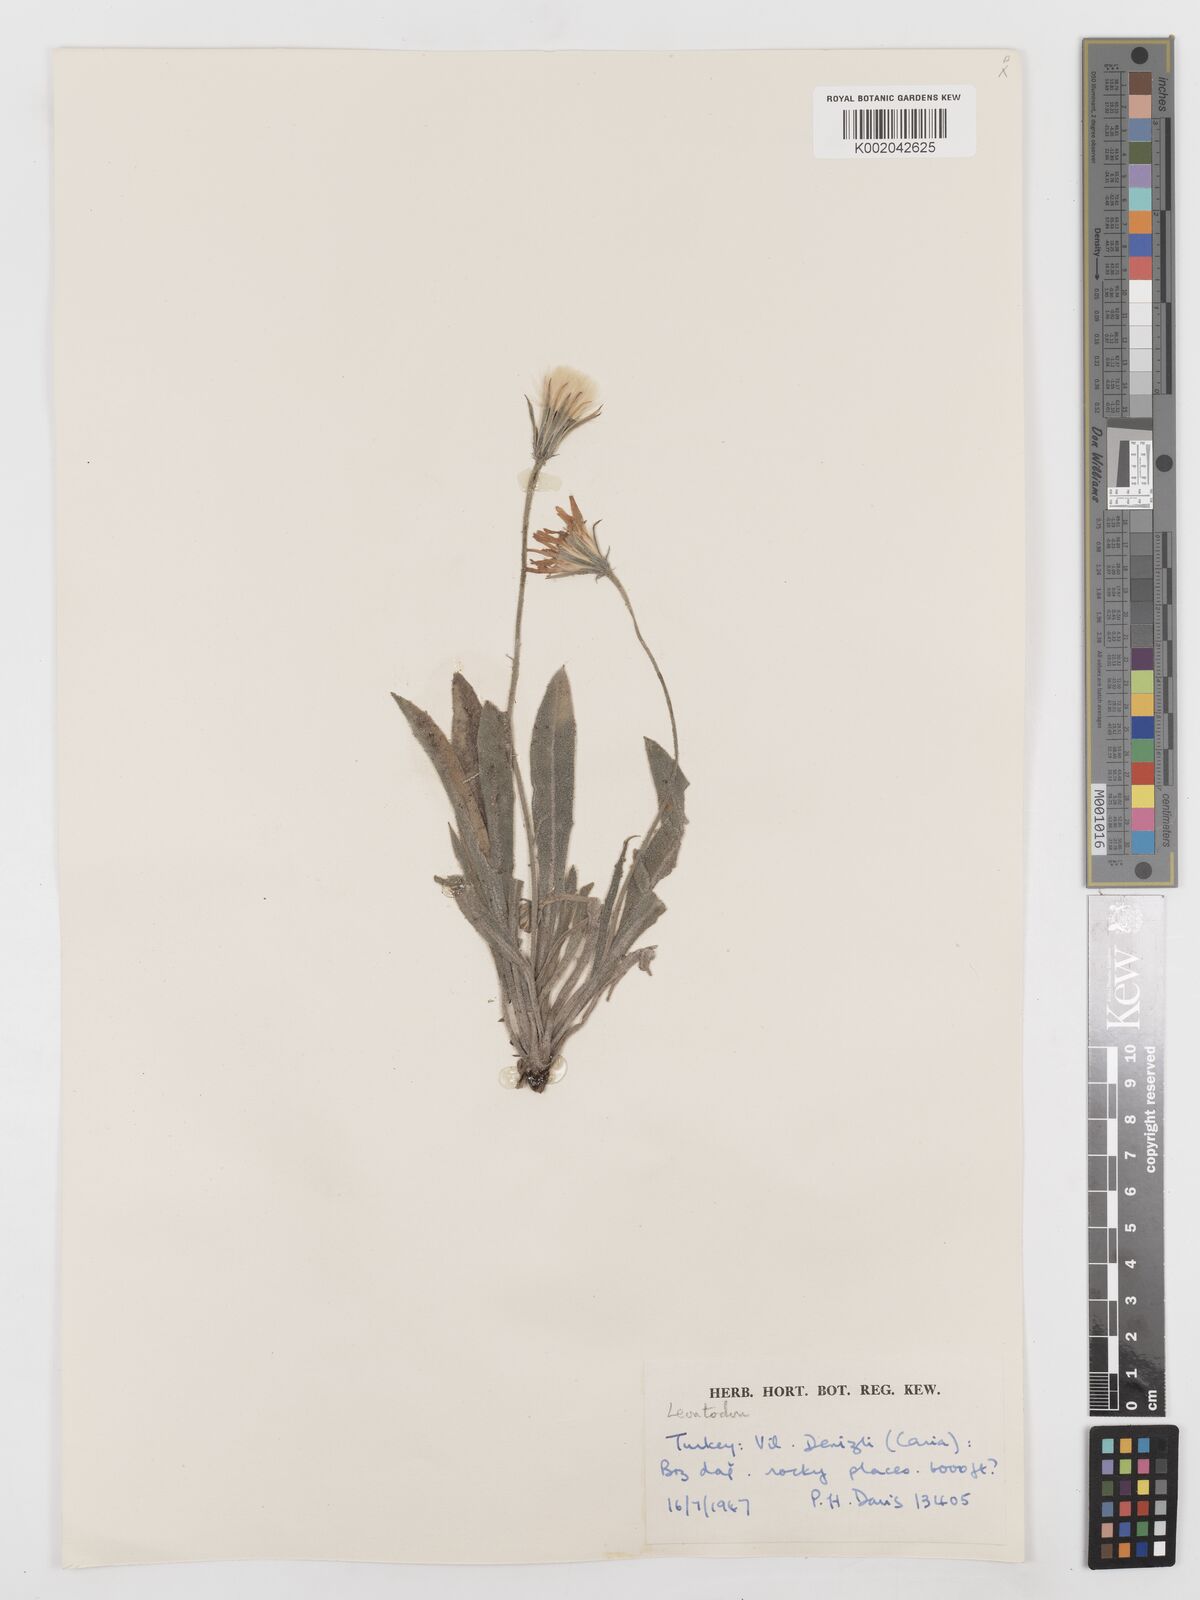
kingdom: Plantae
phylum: Tracheophyta
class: Magnoliopsida
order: Asterales
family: Asteraceae
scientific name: Asteraceae
